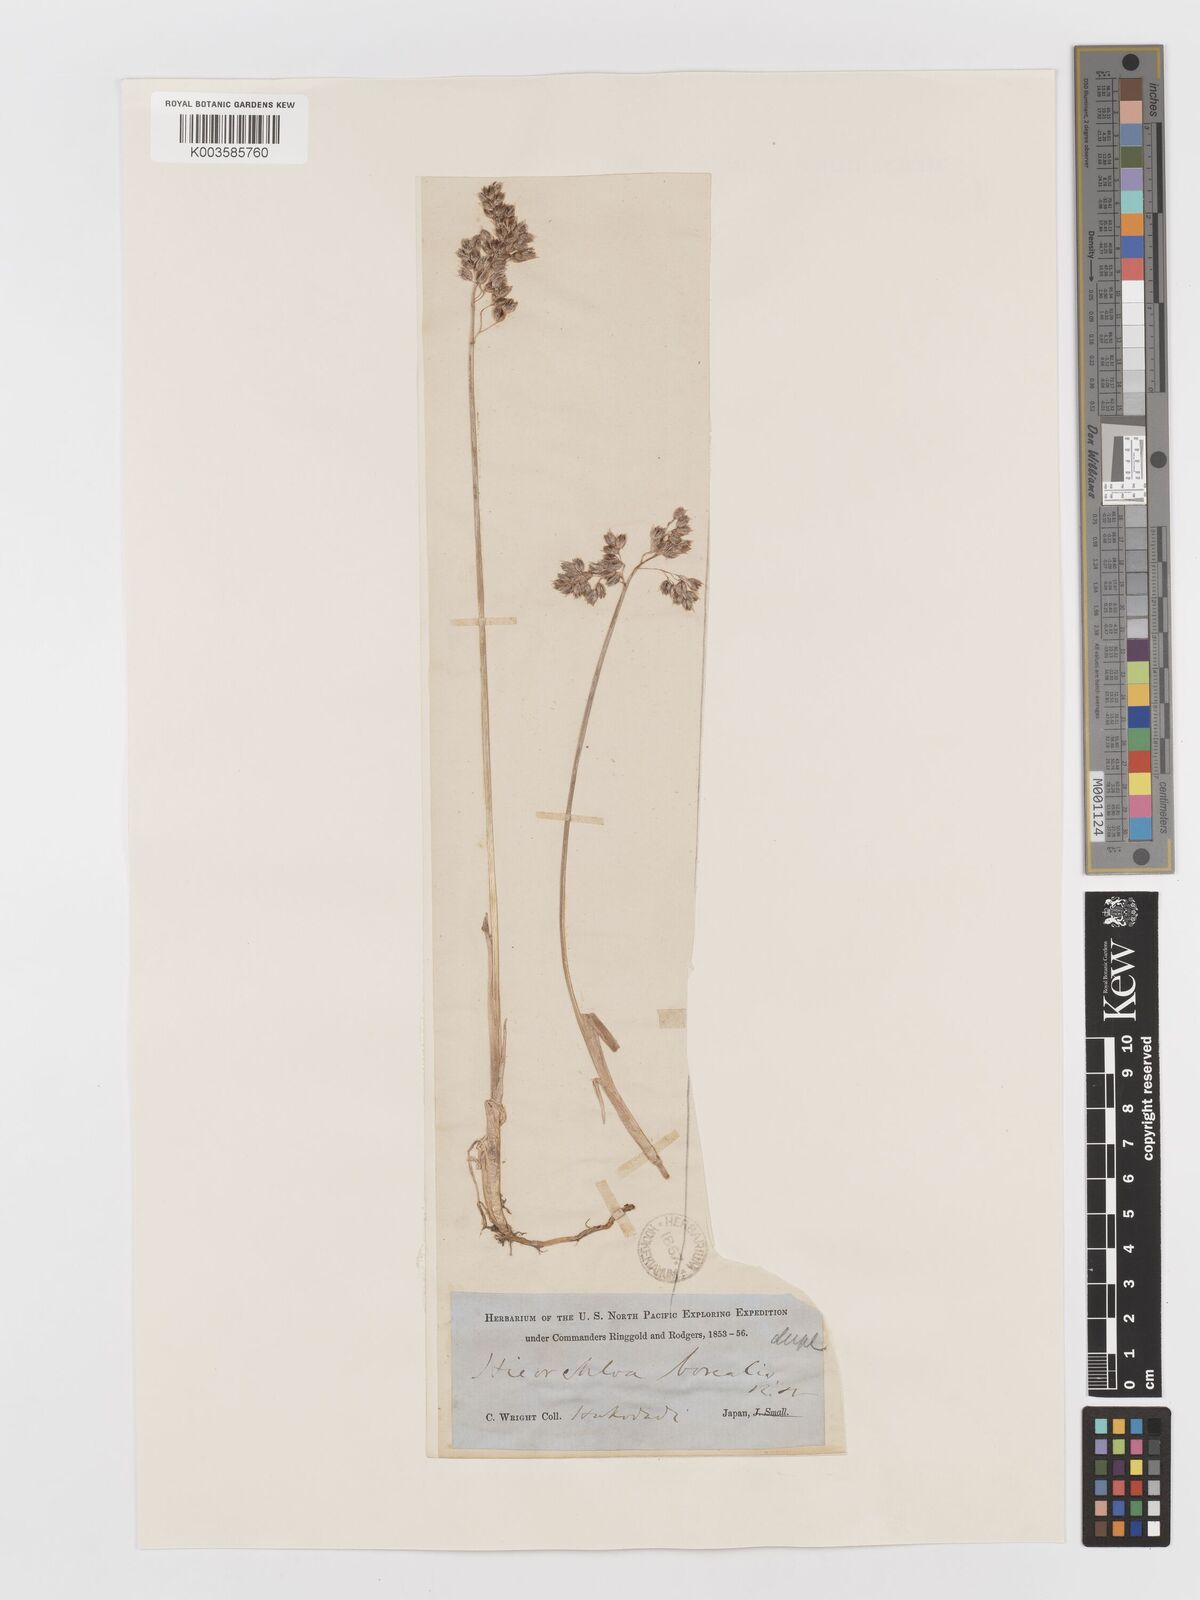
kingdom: Plantae
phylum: Tracheophyta
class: Liliopsida
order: Poales
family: Poaceae
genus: Anthoxanthum
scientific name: Anthoxanthum nitens
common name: Holy grass
